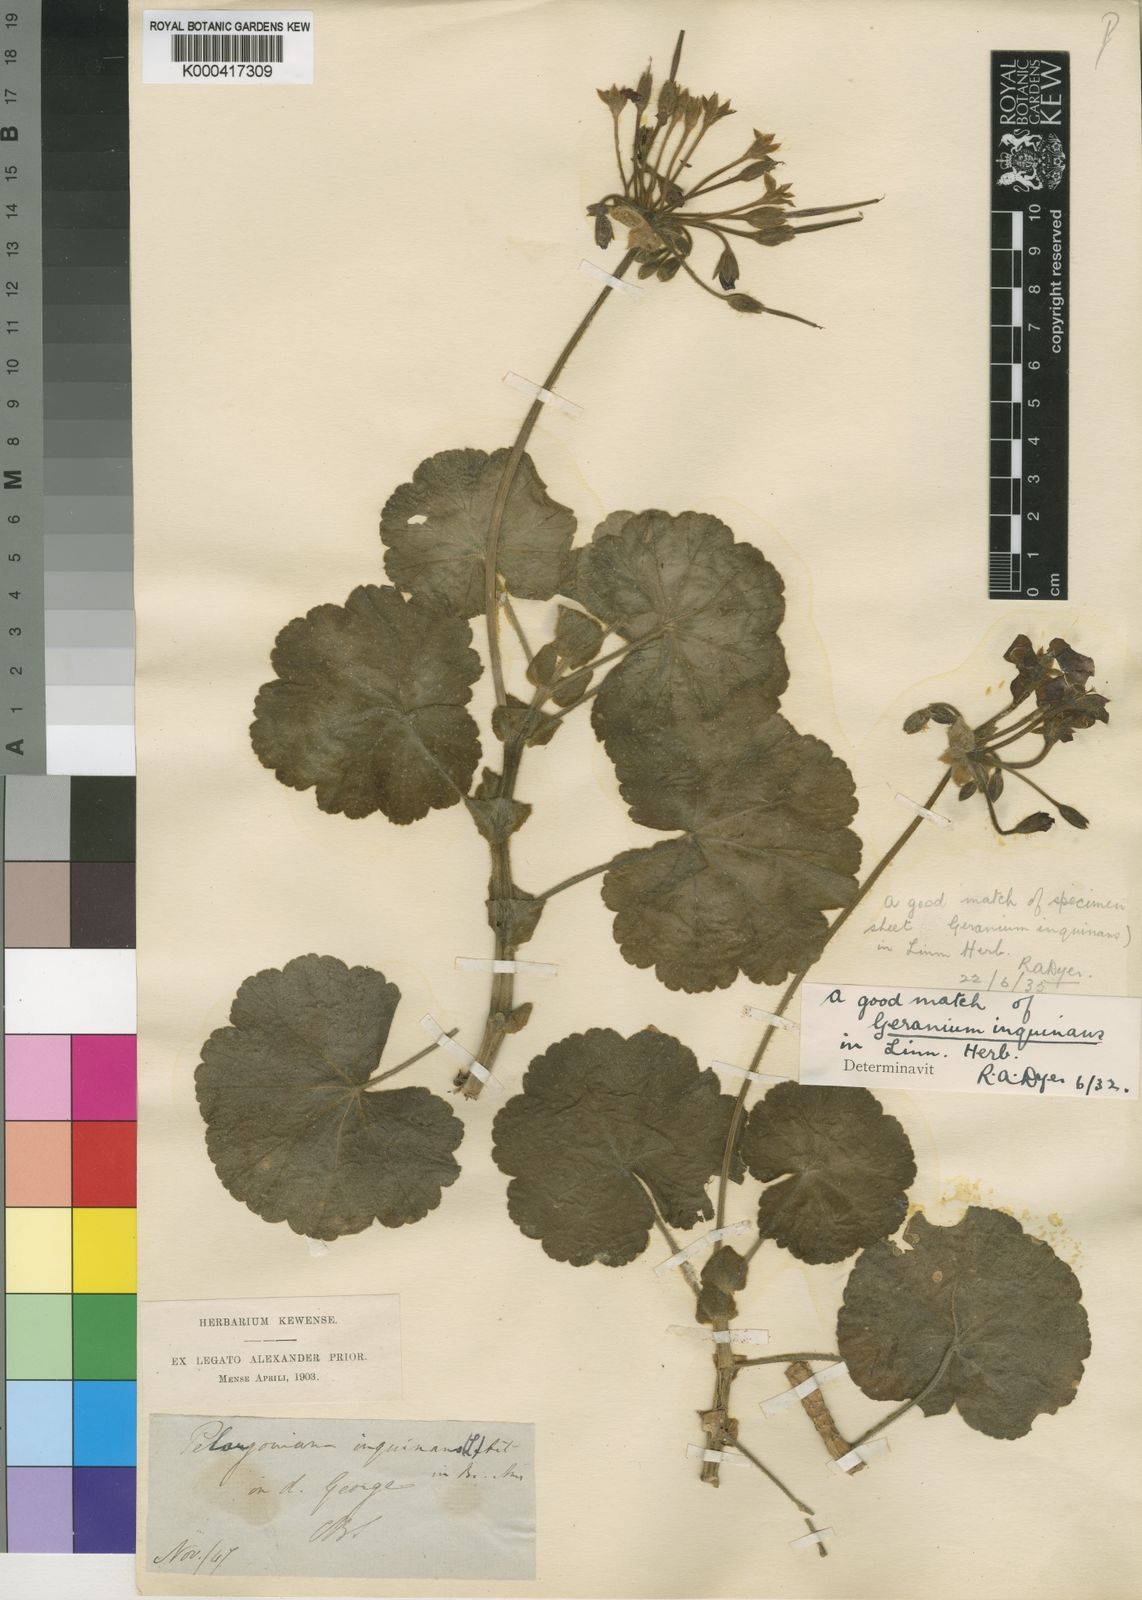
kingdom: Plantae
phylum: Tracheophyta
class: Magnoliopsida
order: Geraniales
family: Geraniaceae
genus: Pelargonium
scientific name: Pelargonium
